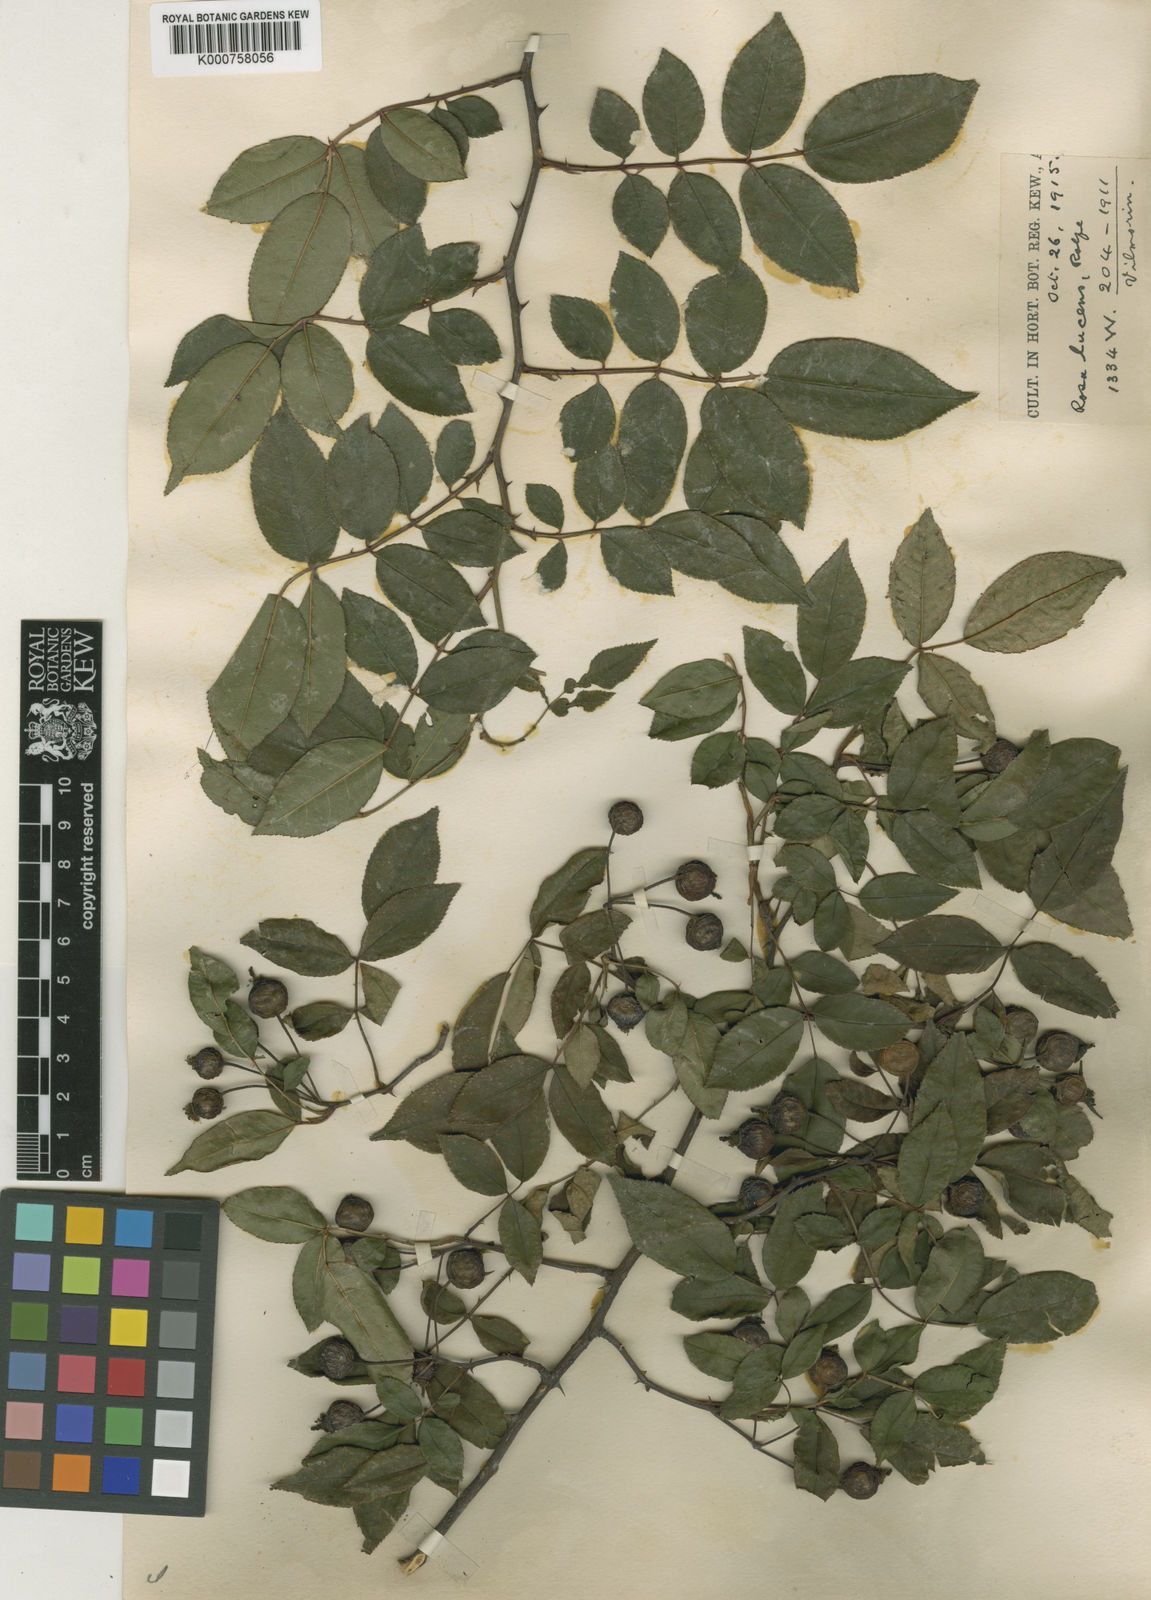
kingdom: Plantae
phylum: Tracheophyta
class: Magnoliopsida
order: Rosales
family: Rosaceae
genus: Rosa
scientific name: Rosa longicuspis
